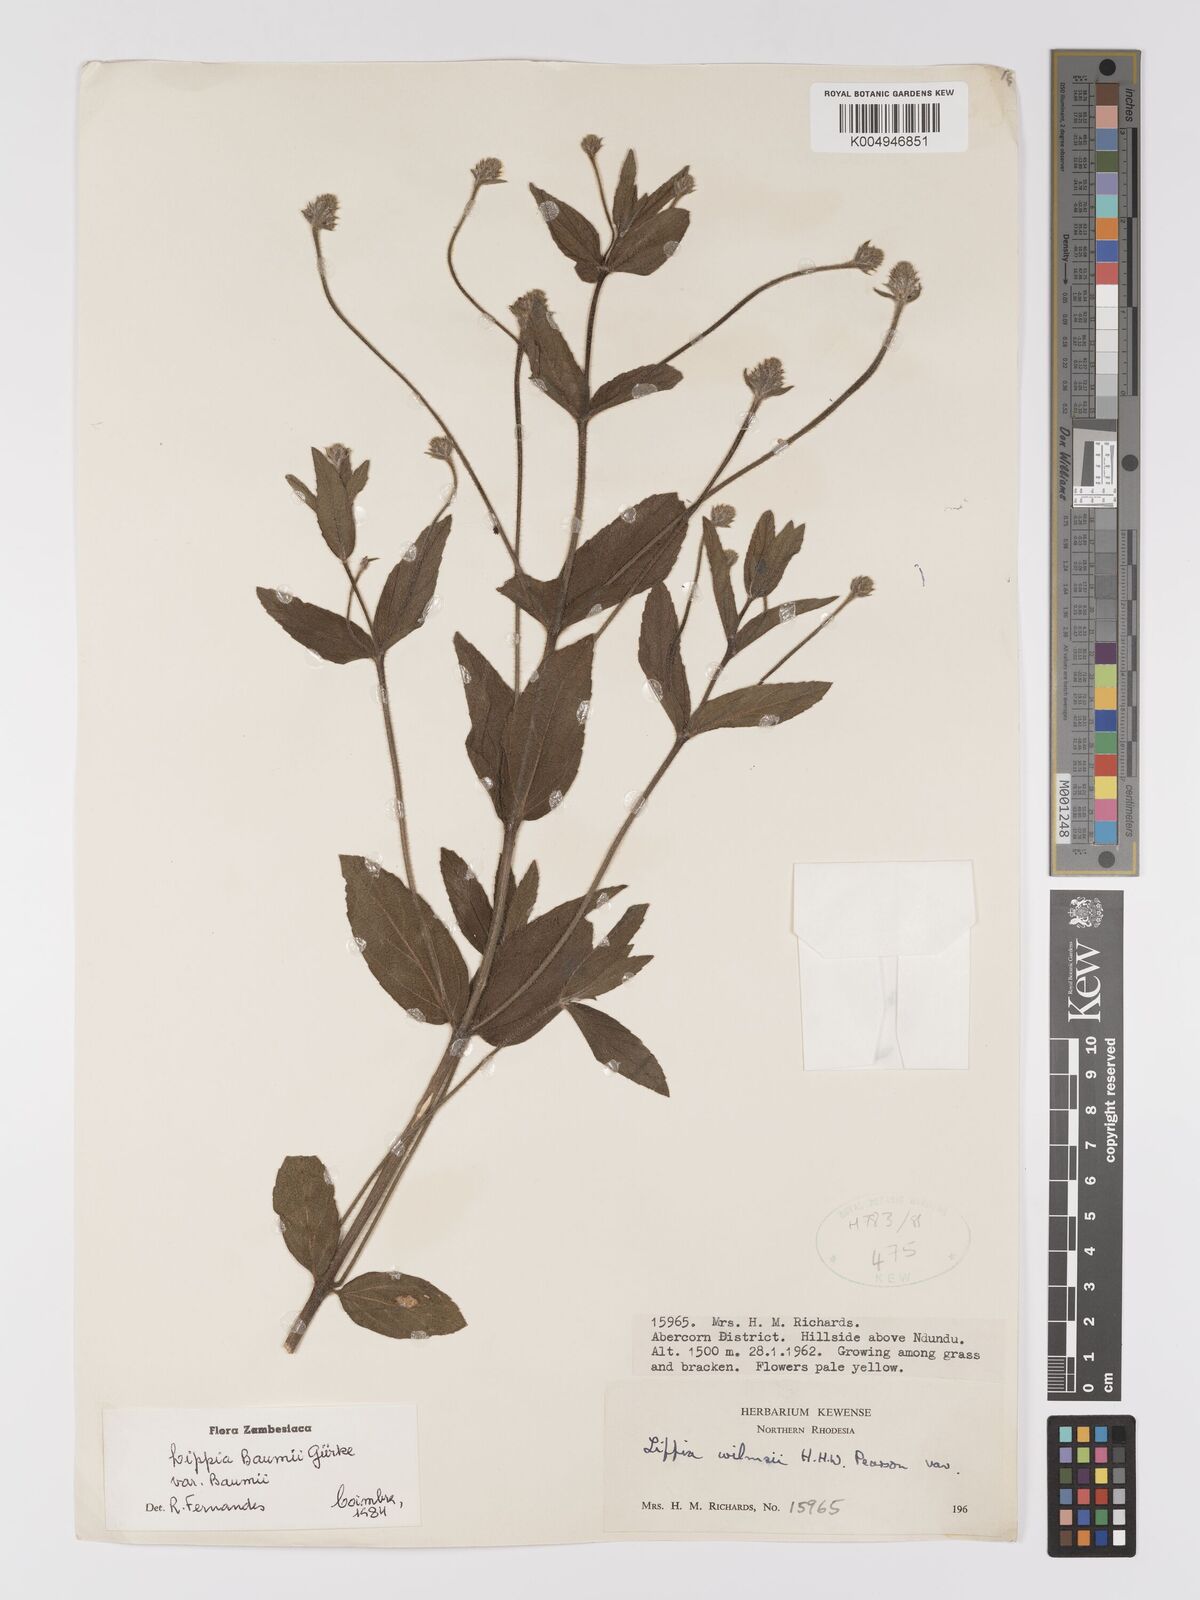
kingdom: Plantae
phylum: Tracheophyta
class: Magnoliopsida
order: Lamiales
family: Verbenaceae
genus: Lippia
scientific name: Lippia baumii
